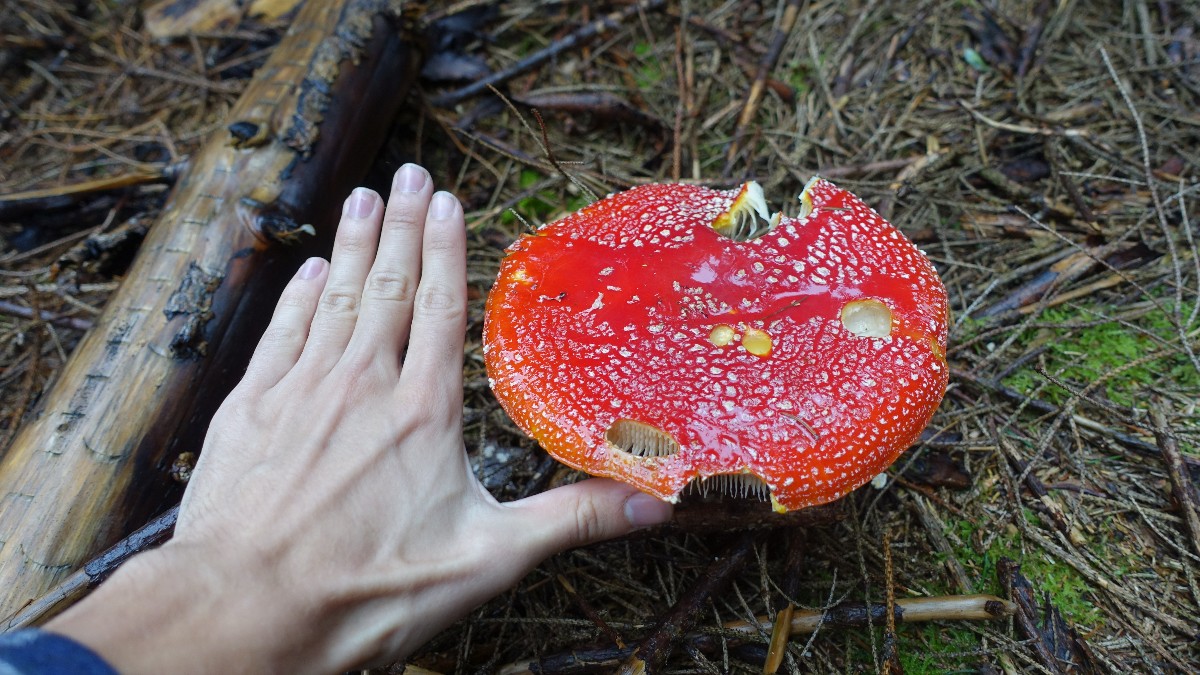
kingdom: Fungi
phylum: Basidiomycota
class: Agaricomycetes
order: Agaricales
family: Amanitaceae
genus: Amanita
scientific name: Amanita muscaria
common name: rød fluesvamp
